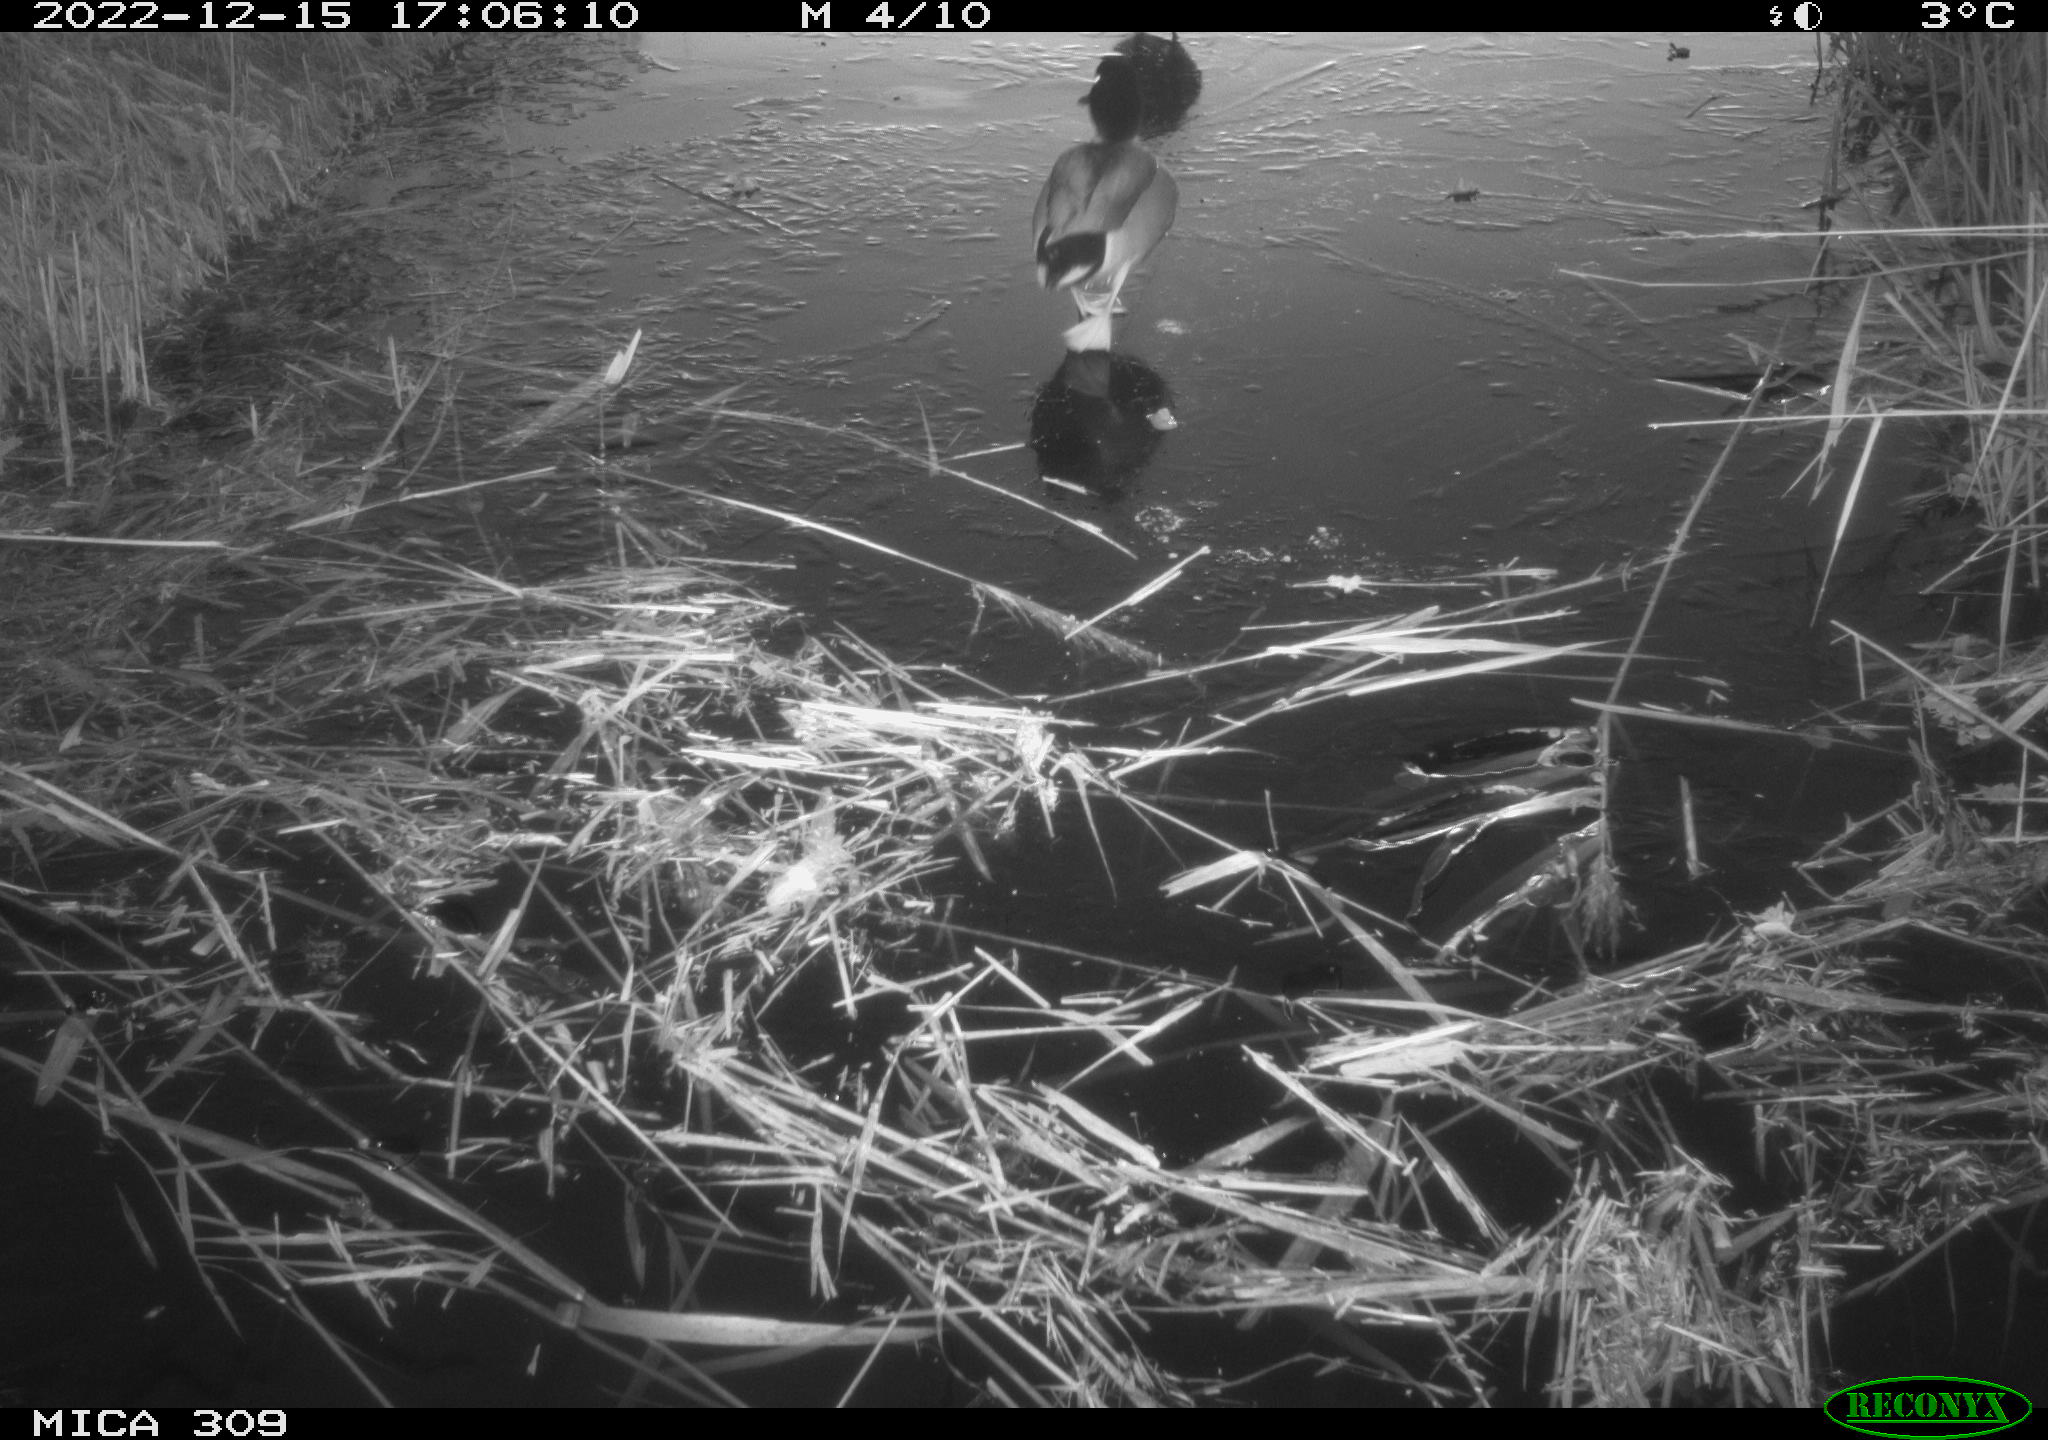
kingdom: Animalia
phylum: Chordata
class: Aves
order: Anseriformes
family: Anatidae
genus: Anas
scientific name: Anas
